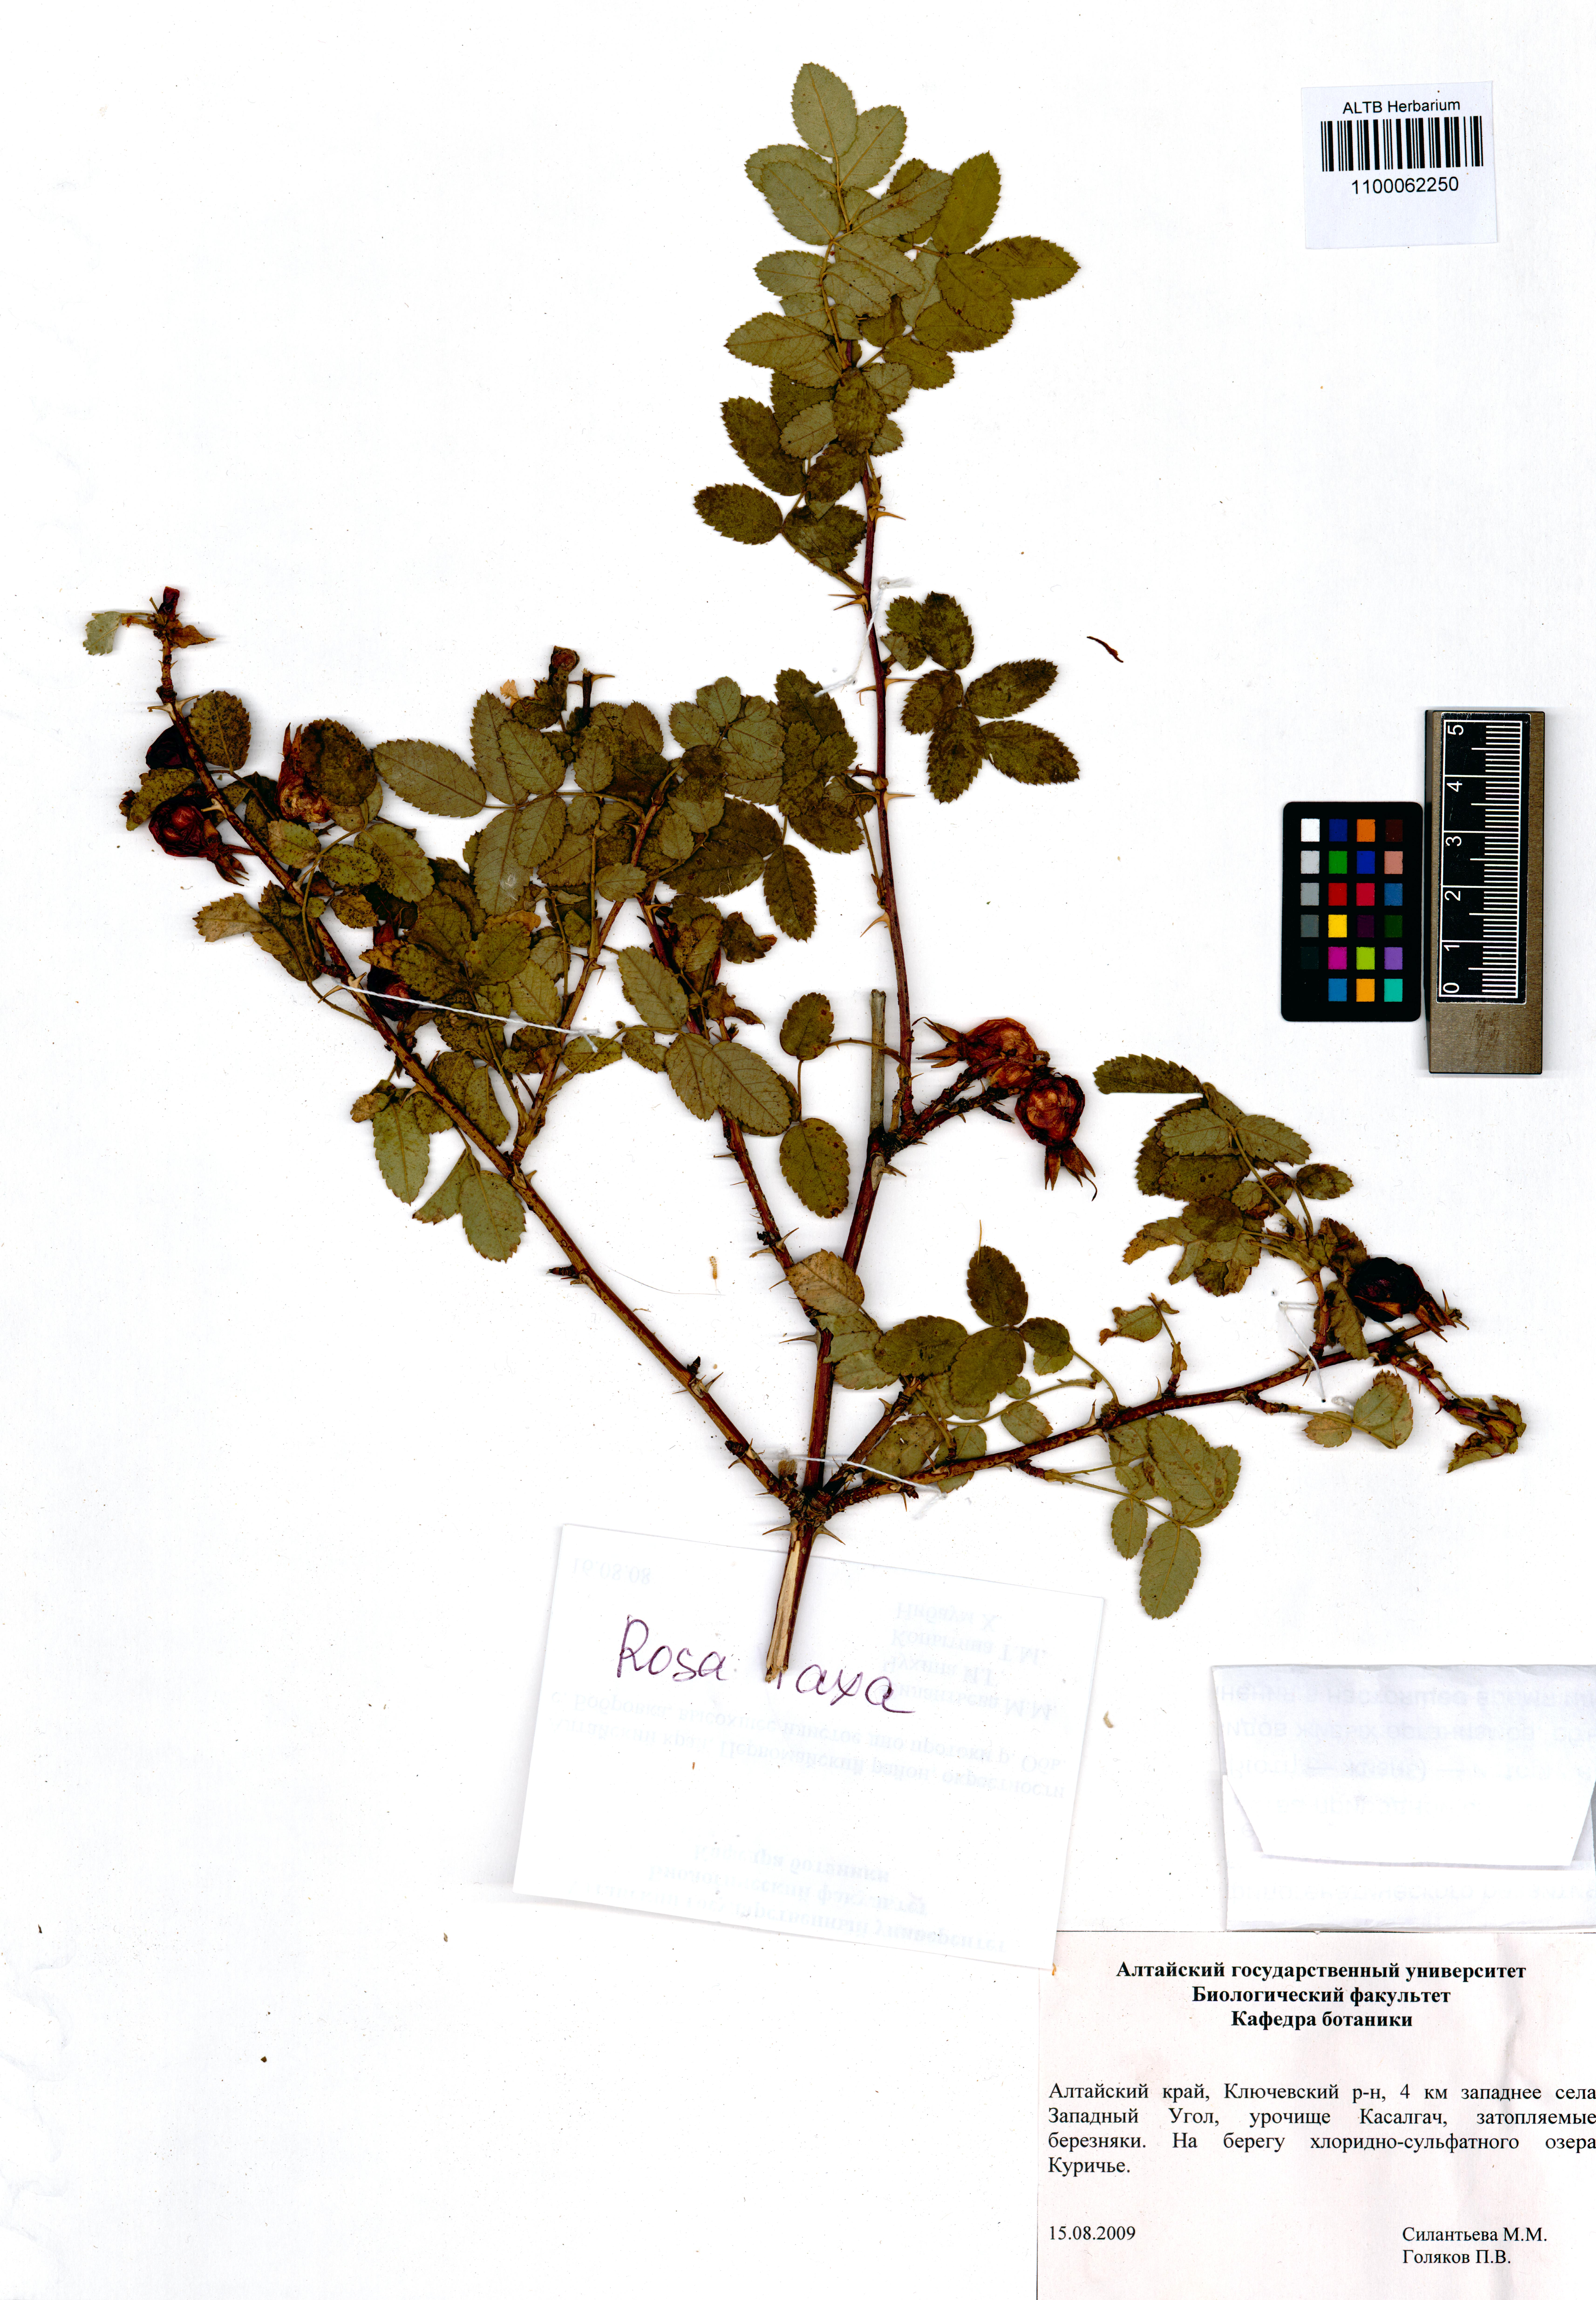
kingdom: Plantae
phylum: Tracheophyta
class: Magnoliopsida
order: Rosales
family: Rosaceae
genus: Rosa
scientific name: Rosa laxa
